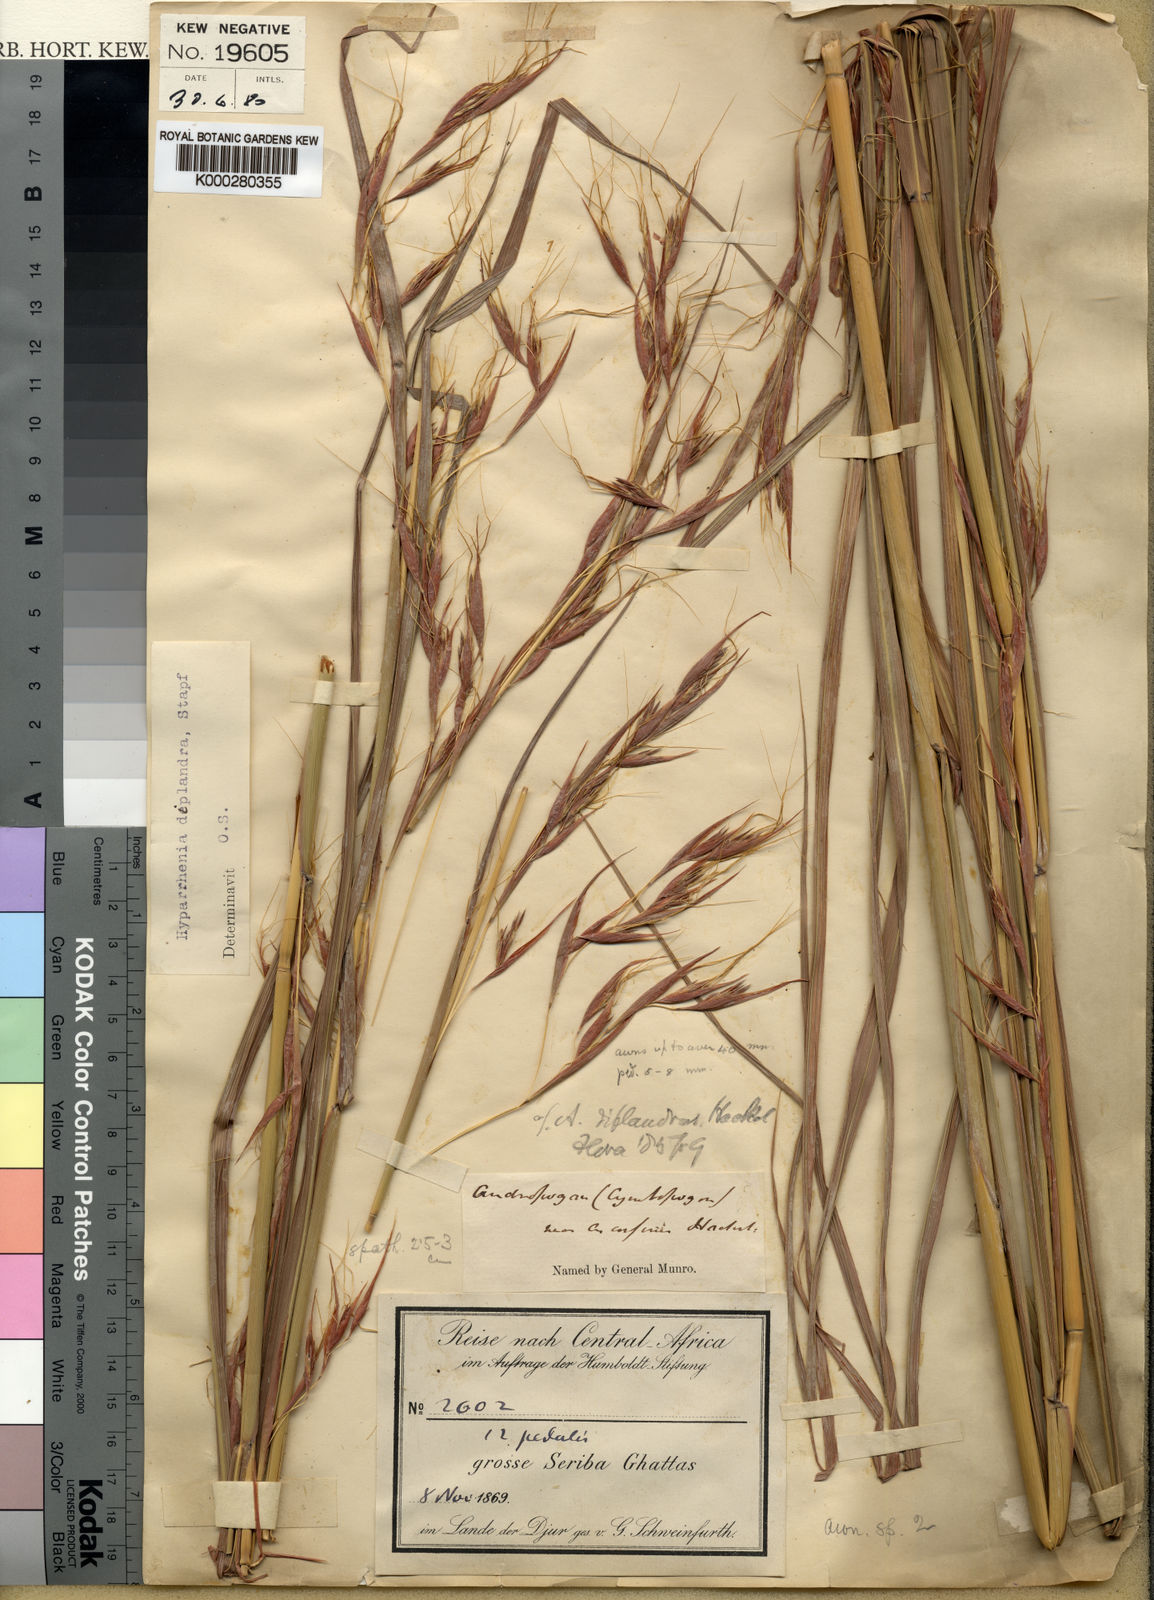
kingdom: Plantae
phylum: Tracheophyta
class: Liliopsida
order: Poales
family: Poaceae
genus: Hyparrhenia
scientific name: Hyparrhenia diplandra
